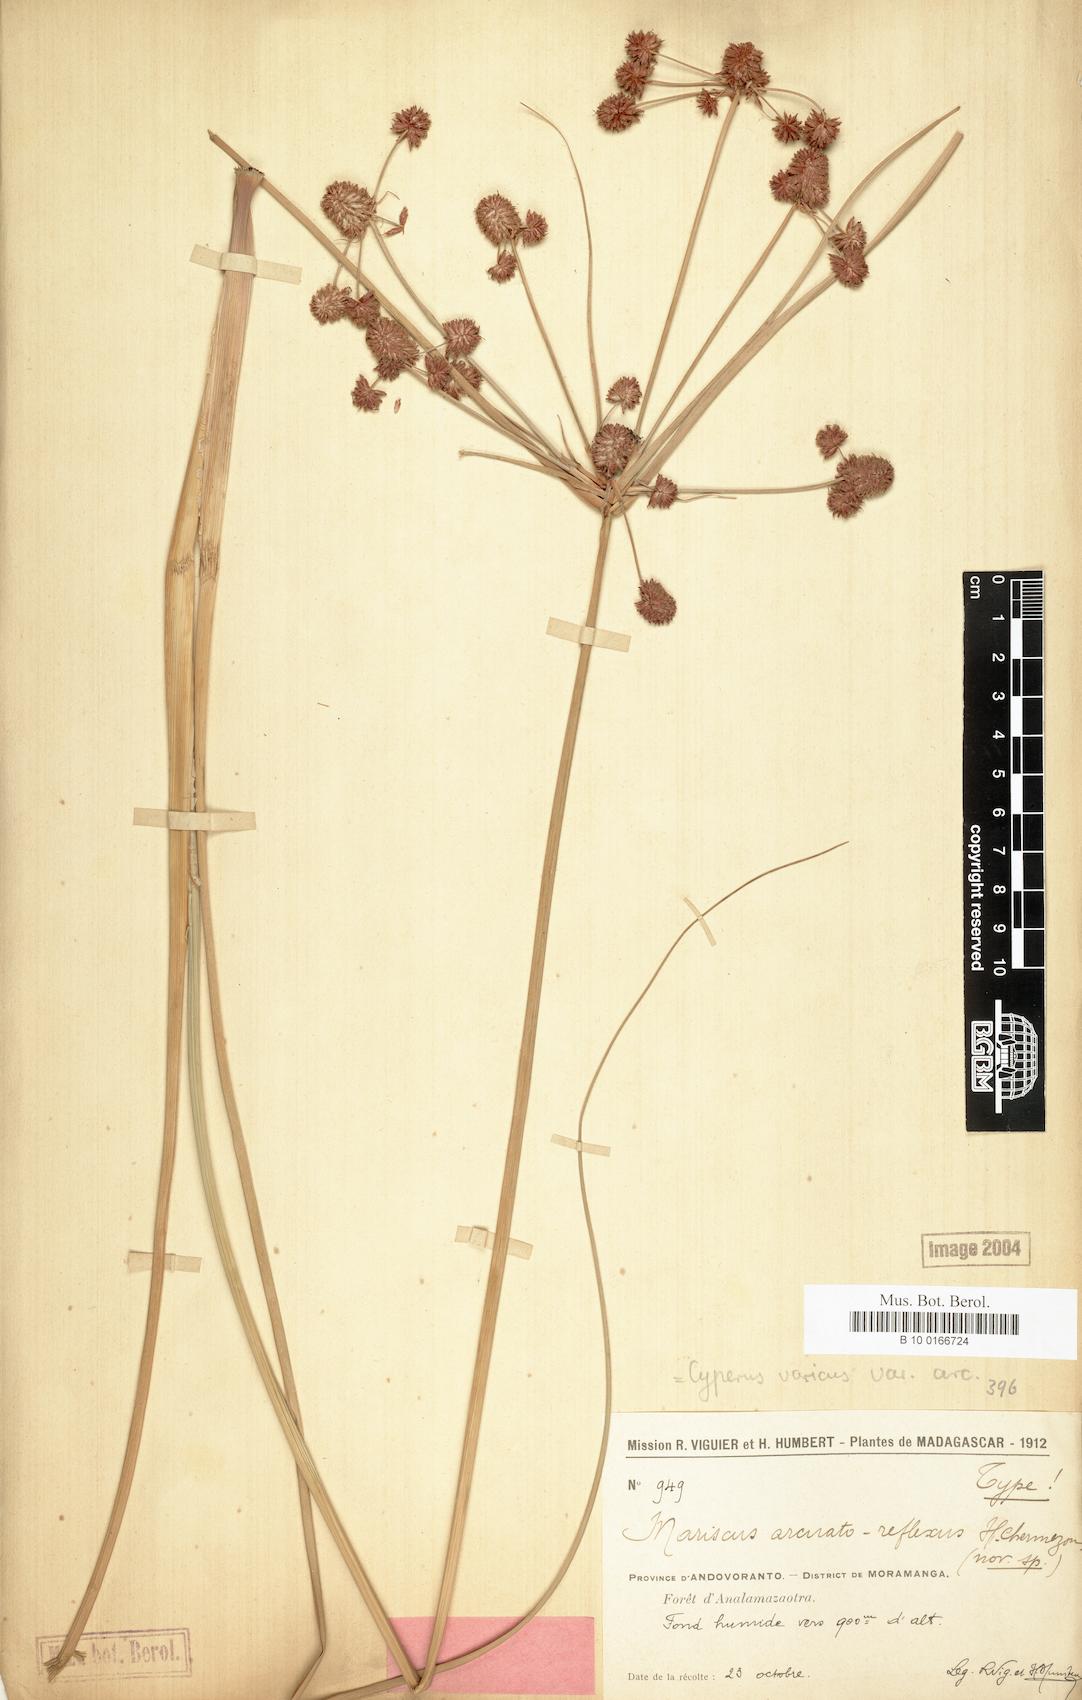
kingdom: Plantae
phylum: Tracheophyta
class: Liliopsida
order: Poales
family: Cyperaceae
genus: Cyperus
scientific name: Cyperus varicus
